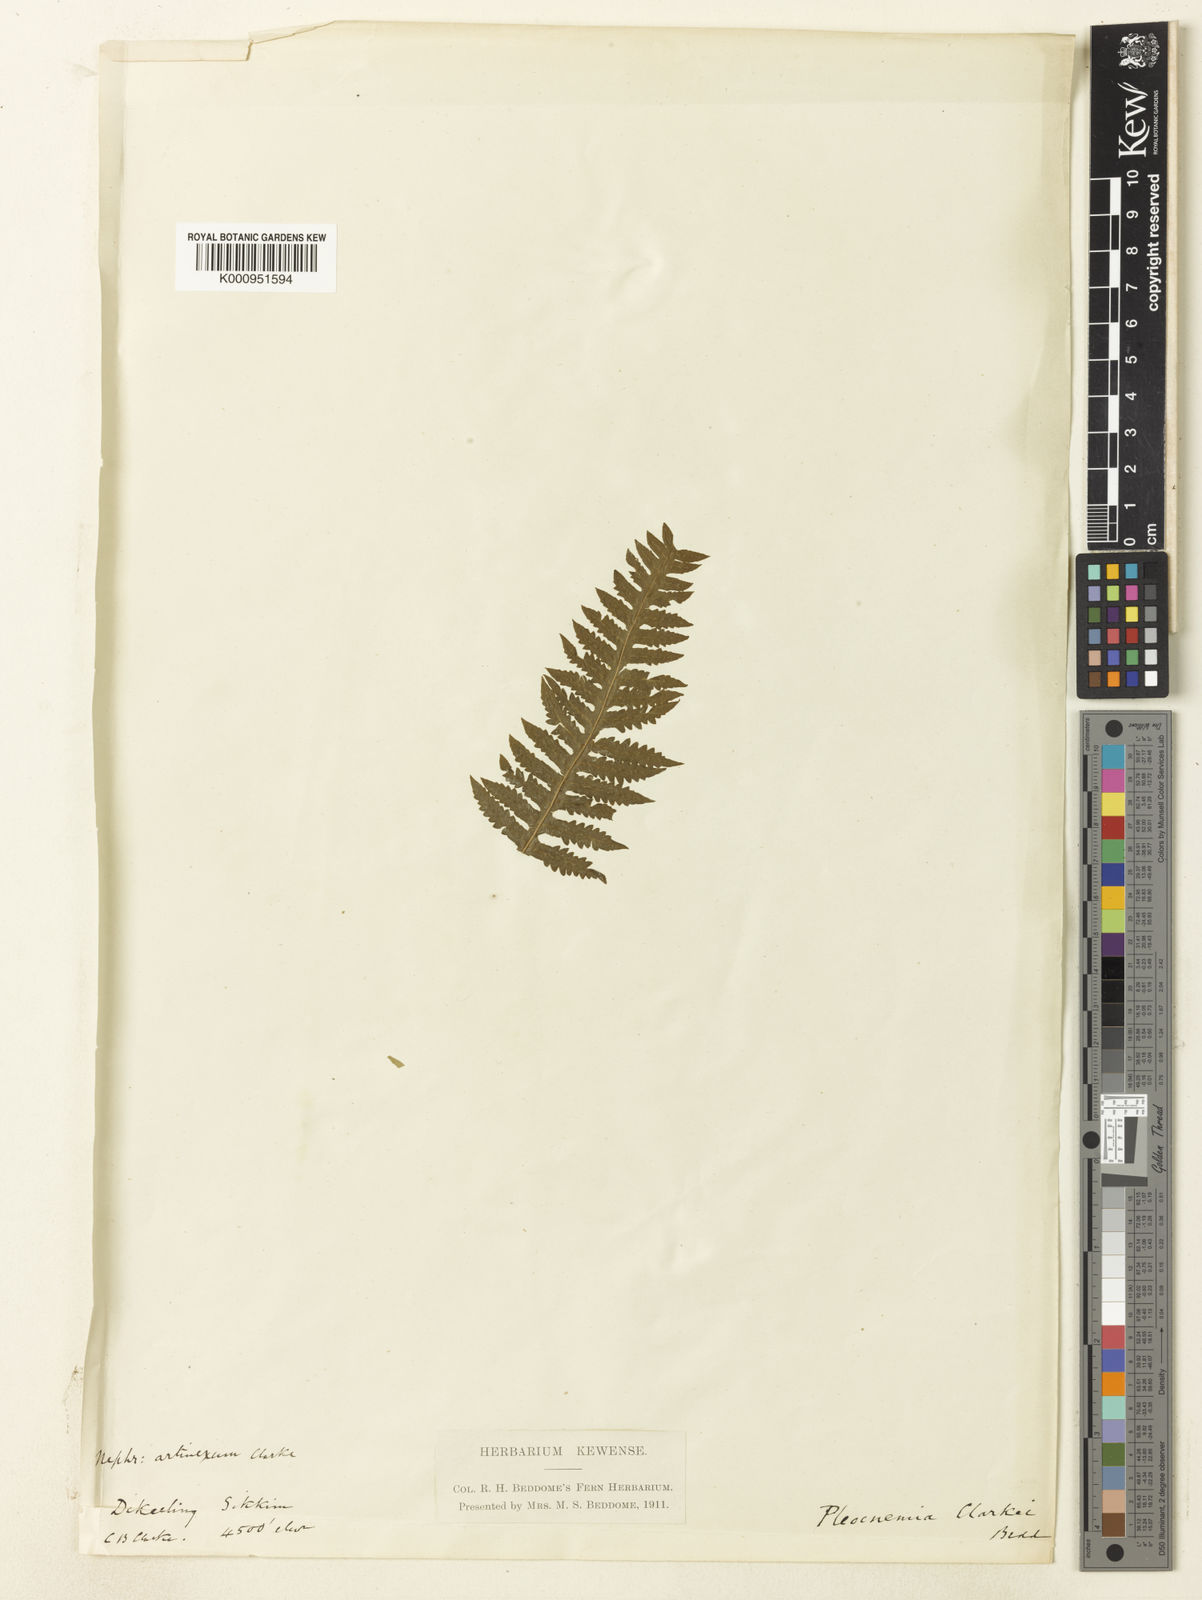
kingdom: Plantae
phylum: Tracheophyta
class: Polypodiopsida
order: Polypodiales
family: Thelypteridaceae
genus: Christella
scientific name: Christella clarkei
